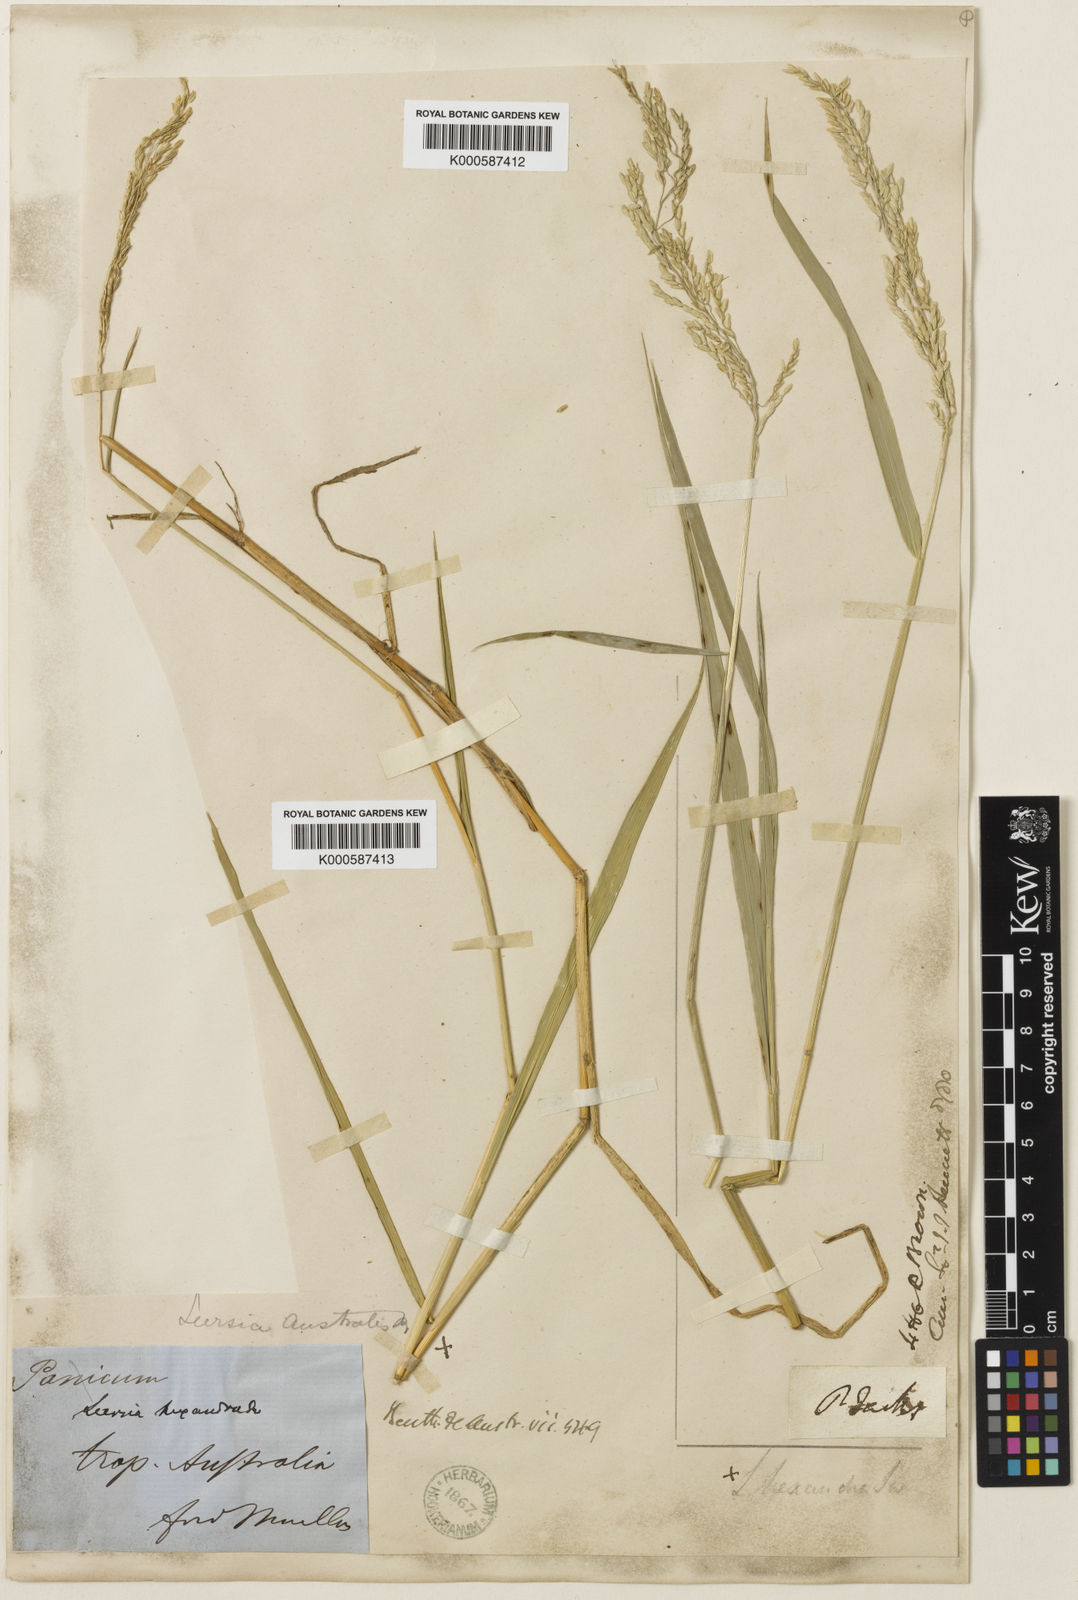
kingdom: Plantae
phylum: Tracheophyta
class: Liliopsida
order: Poales
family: Poaceae
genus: Leersia
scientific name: Leersia hexandra
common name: Southern cut grass
